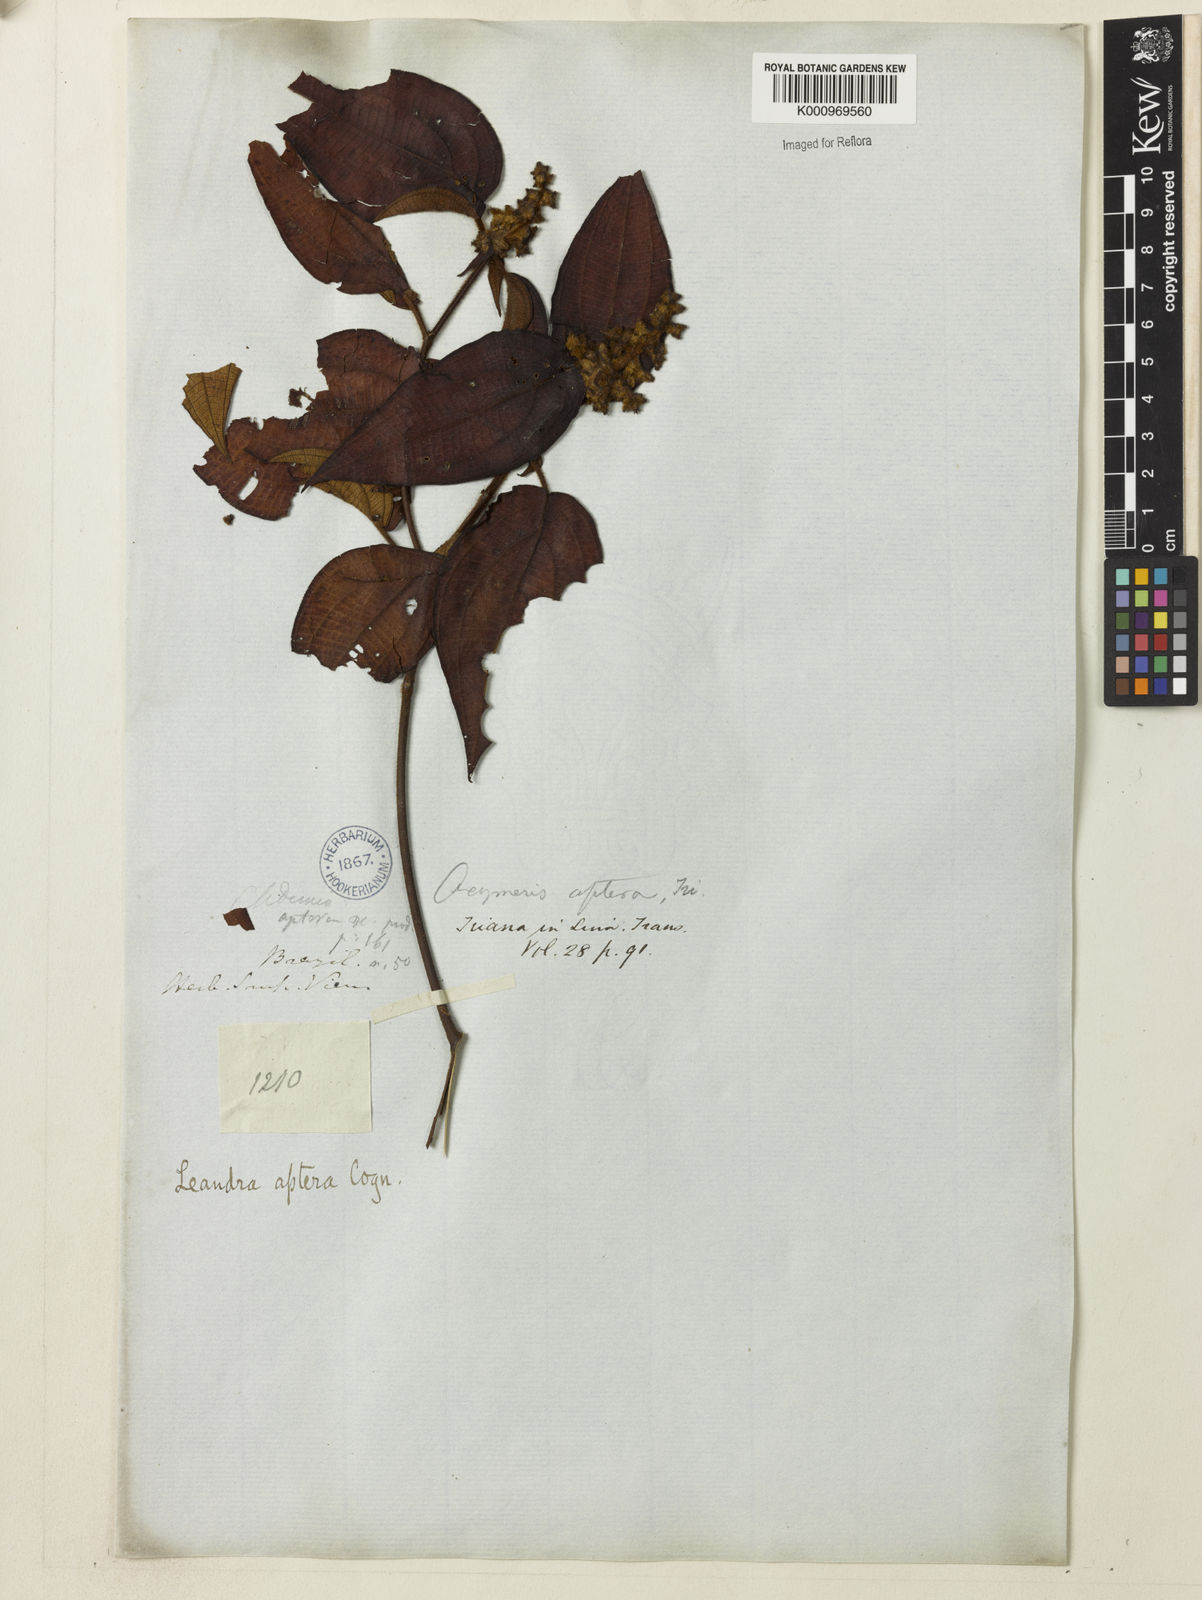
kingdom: Plantae
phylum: Tracheophyta
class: Magnoliopsida
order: Myrtales
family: Melastomataceae
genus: Miconia
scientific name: Miconia aptera
